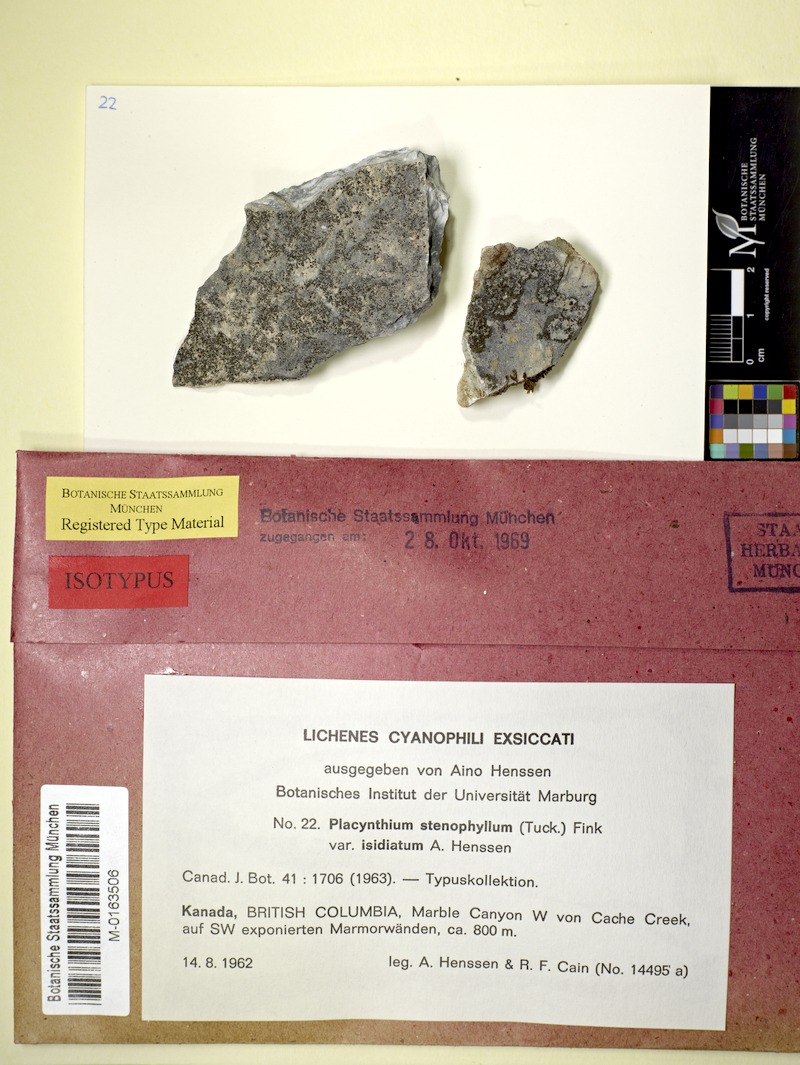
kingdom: Fungi
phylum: Ascomycota
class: Lecanoromycetes
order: Peltigerales
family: Placynthiaceae
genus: Placynthium
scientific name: Placynthium stenophyllum
